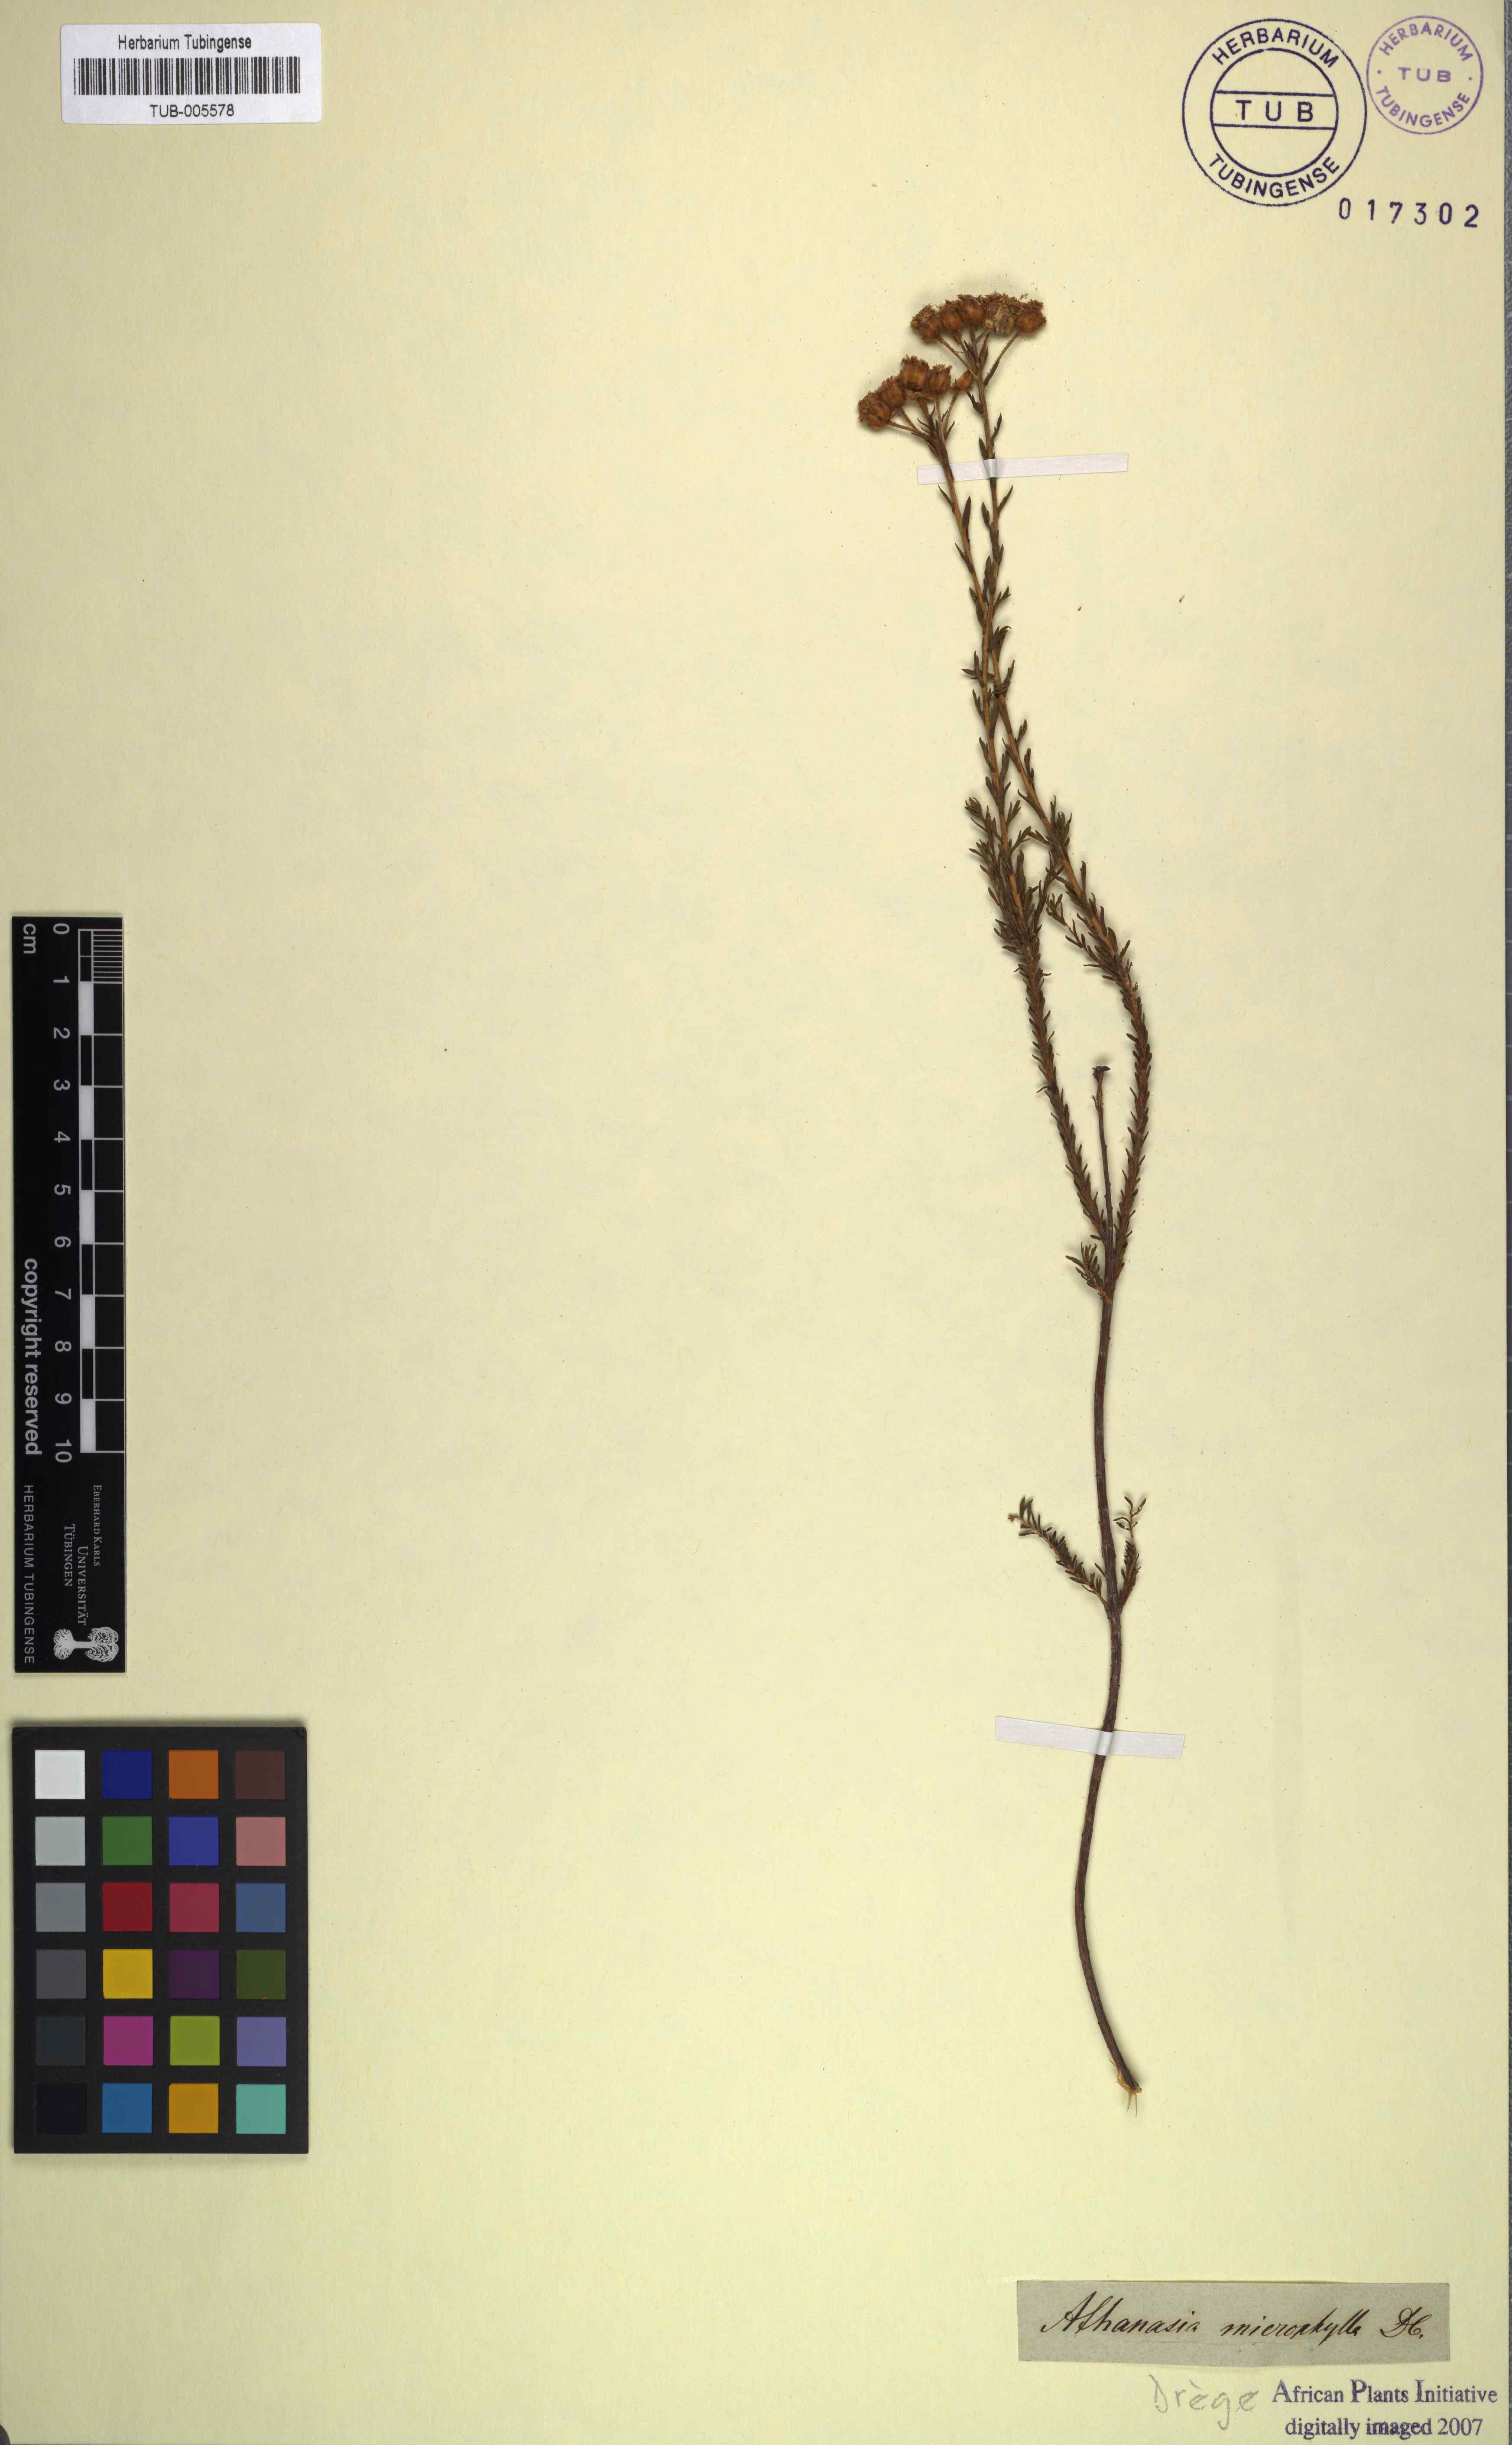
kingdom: Plantae
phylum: Tracheophyta
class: Magnoliopsida
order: Asterales
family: Asteraceae
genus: Athanasia
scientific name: Athanasia microphylla
